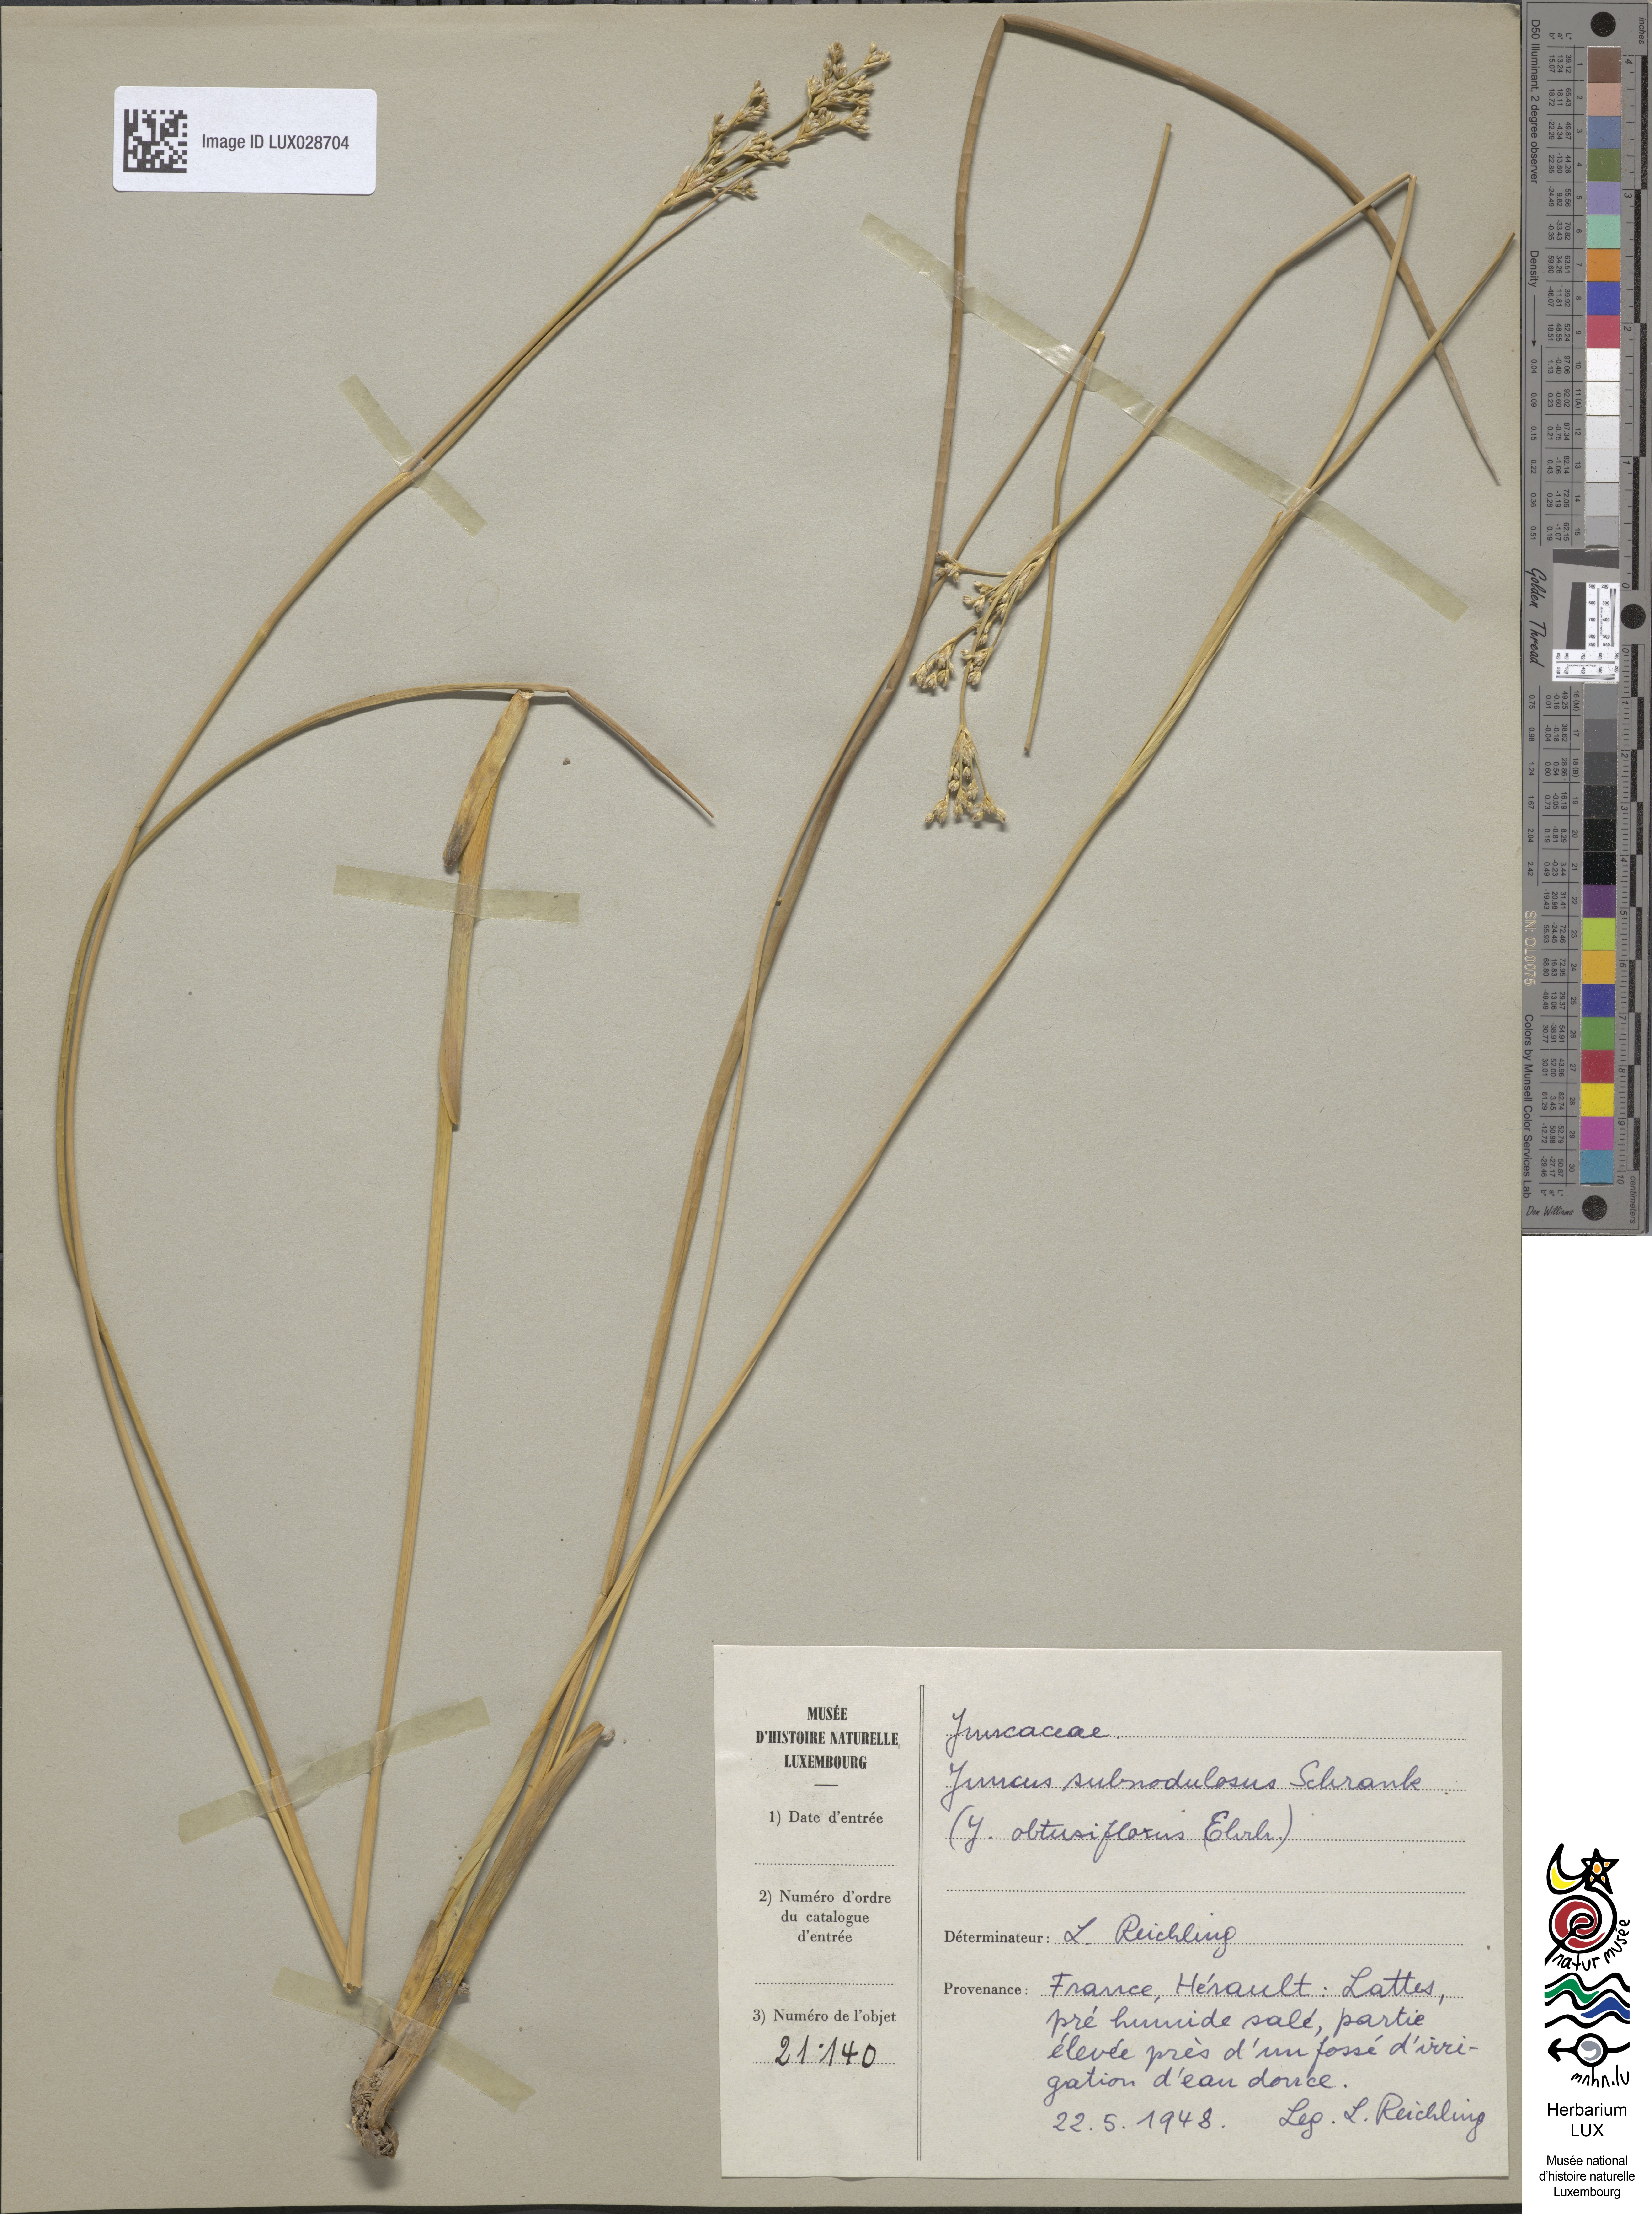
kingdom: Plantae
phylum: Tracheophyta
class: Liliopsida
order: Poales
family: Juncaceae
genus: Juncus
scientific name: Juncus subnodulosus
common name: Blunt-flowered rush
